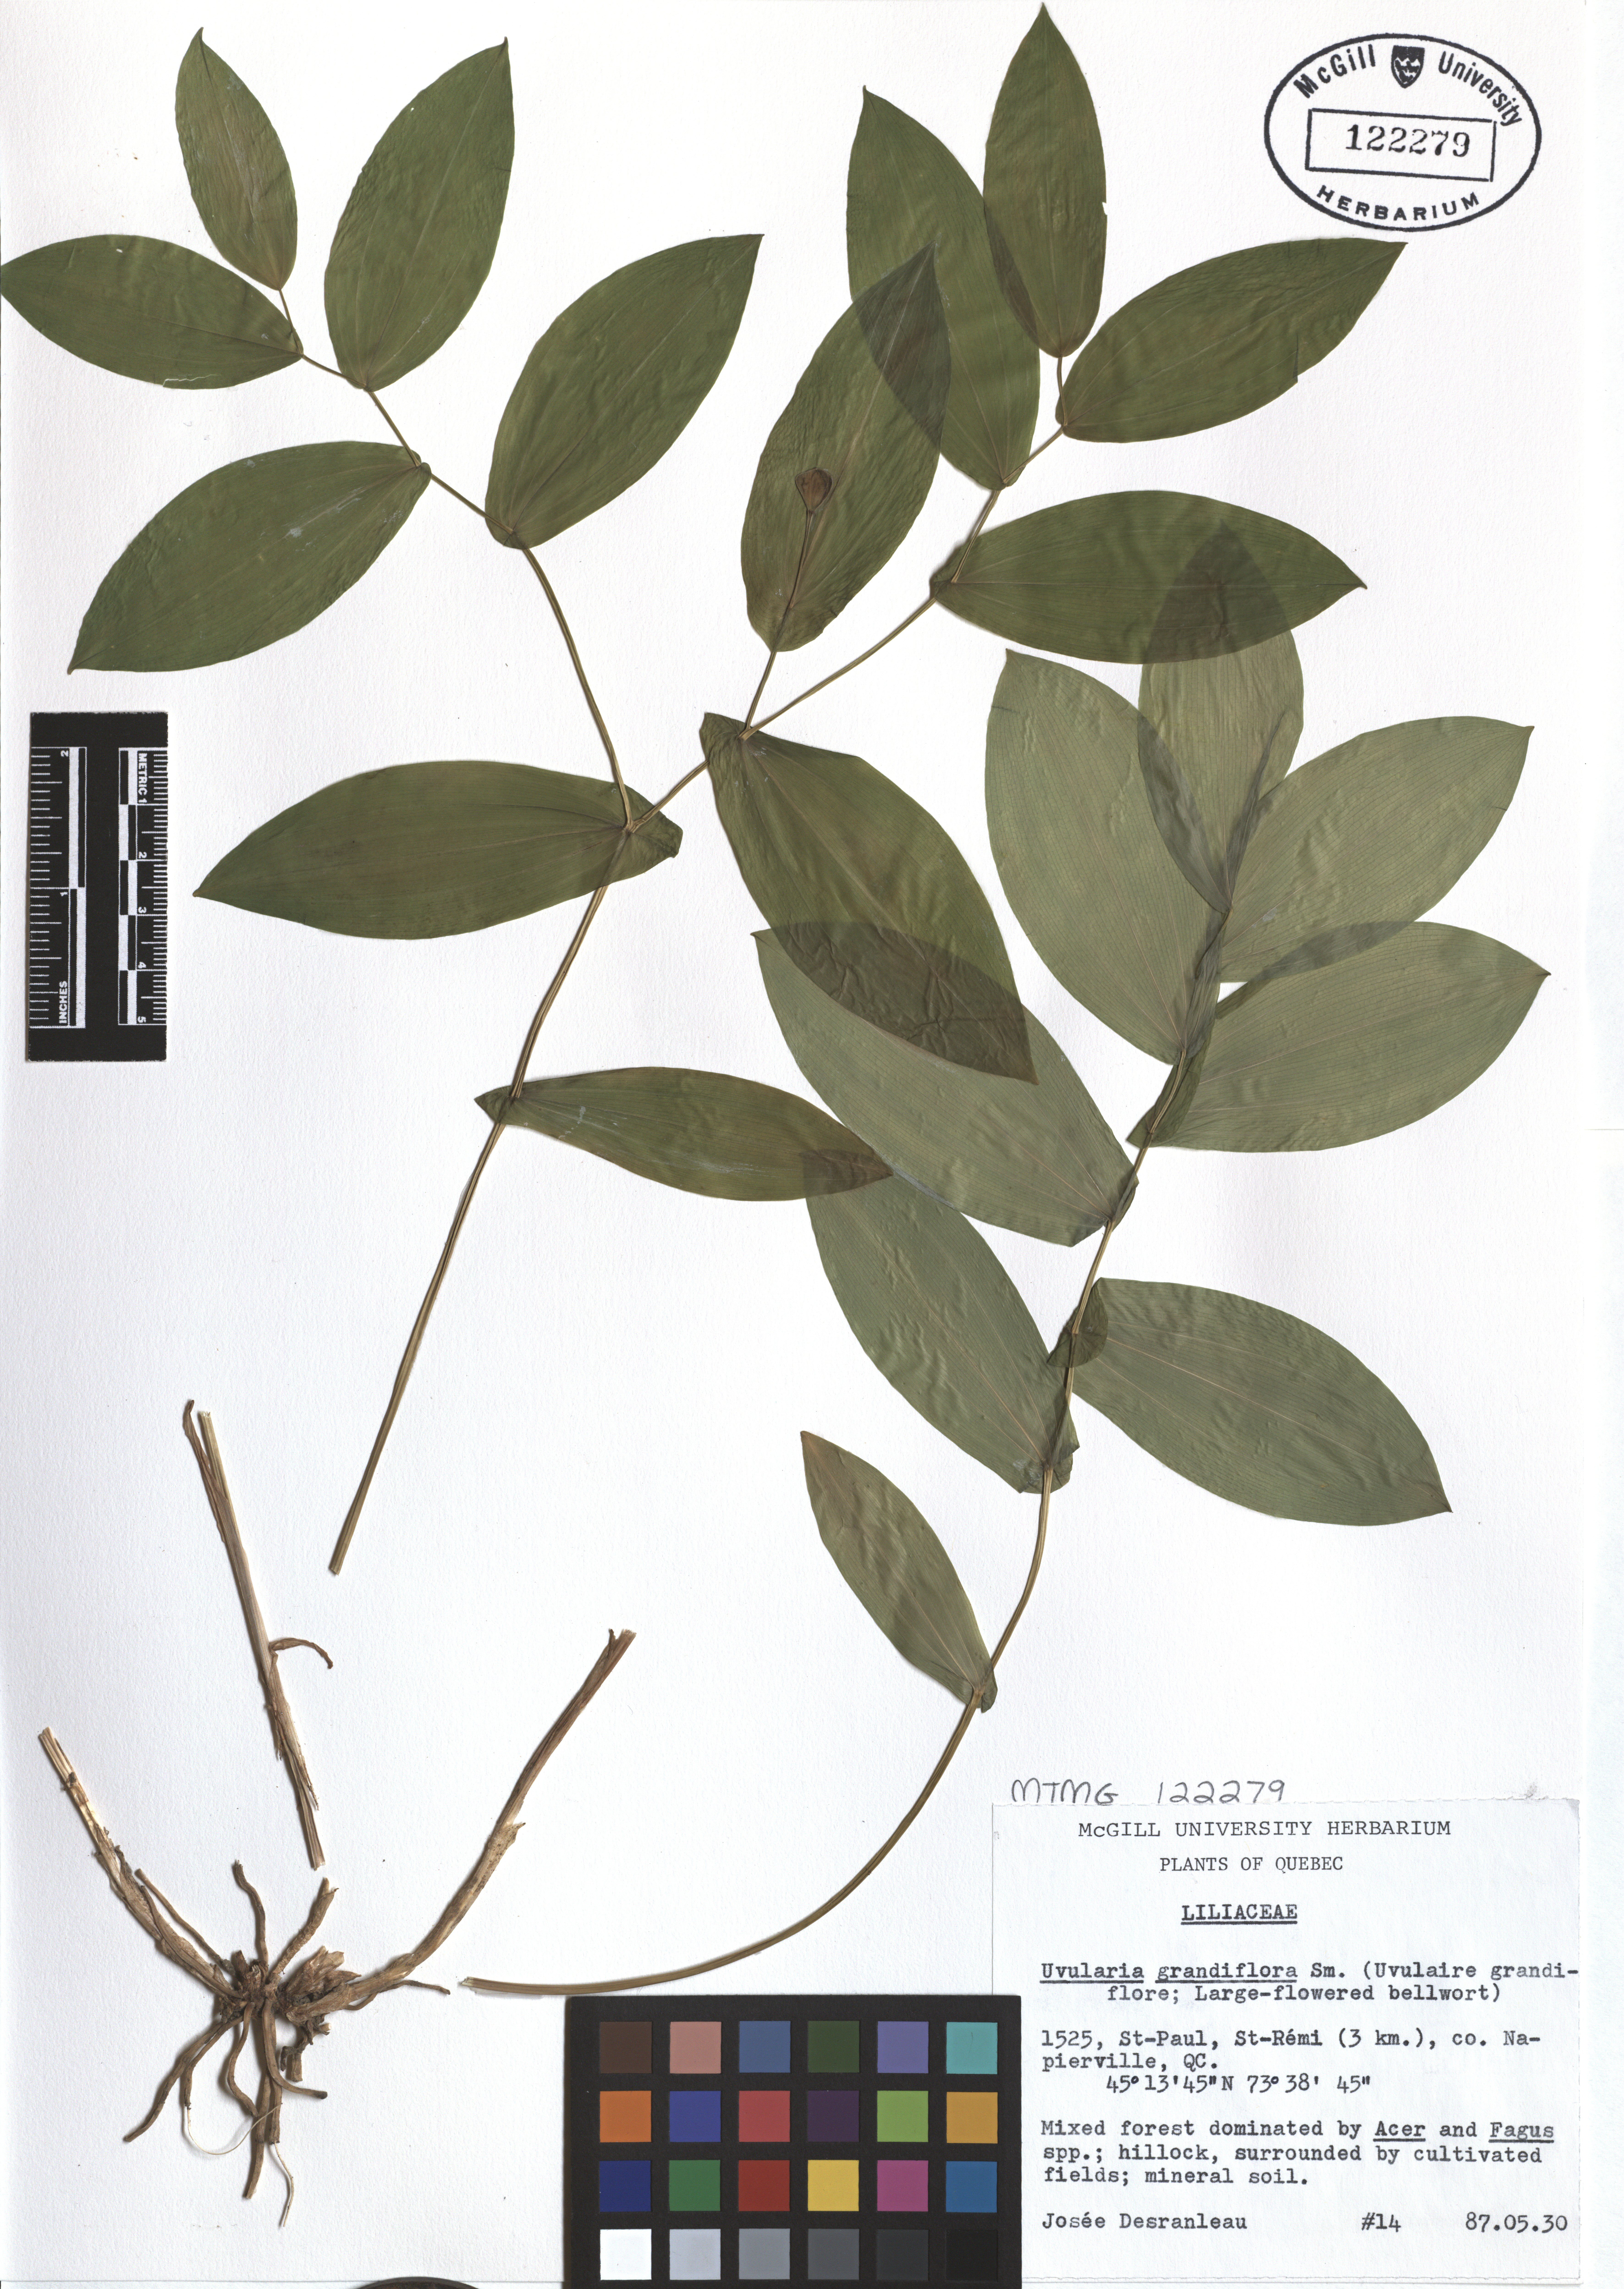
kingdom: Plantae
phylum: Tracheophyta
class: Liliopsida
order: Liliales
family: Colchicaceae
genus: Uvularia
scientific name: Uvularia grandiflora
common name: Bellwort
